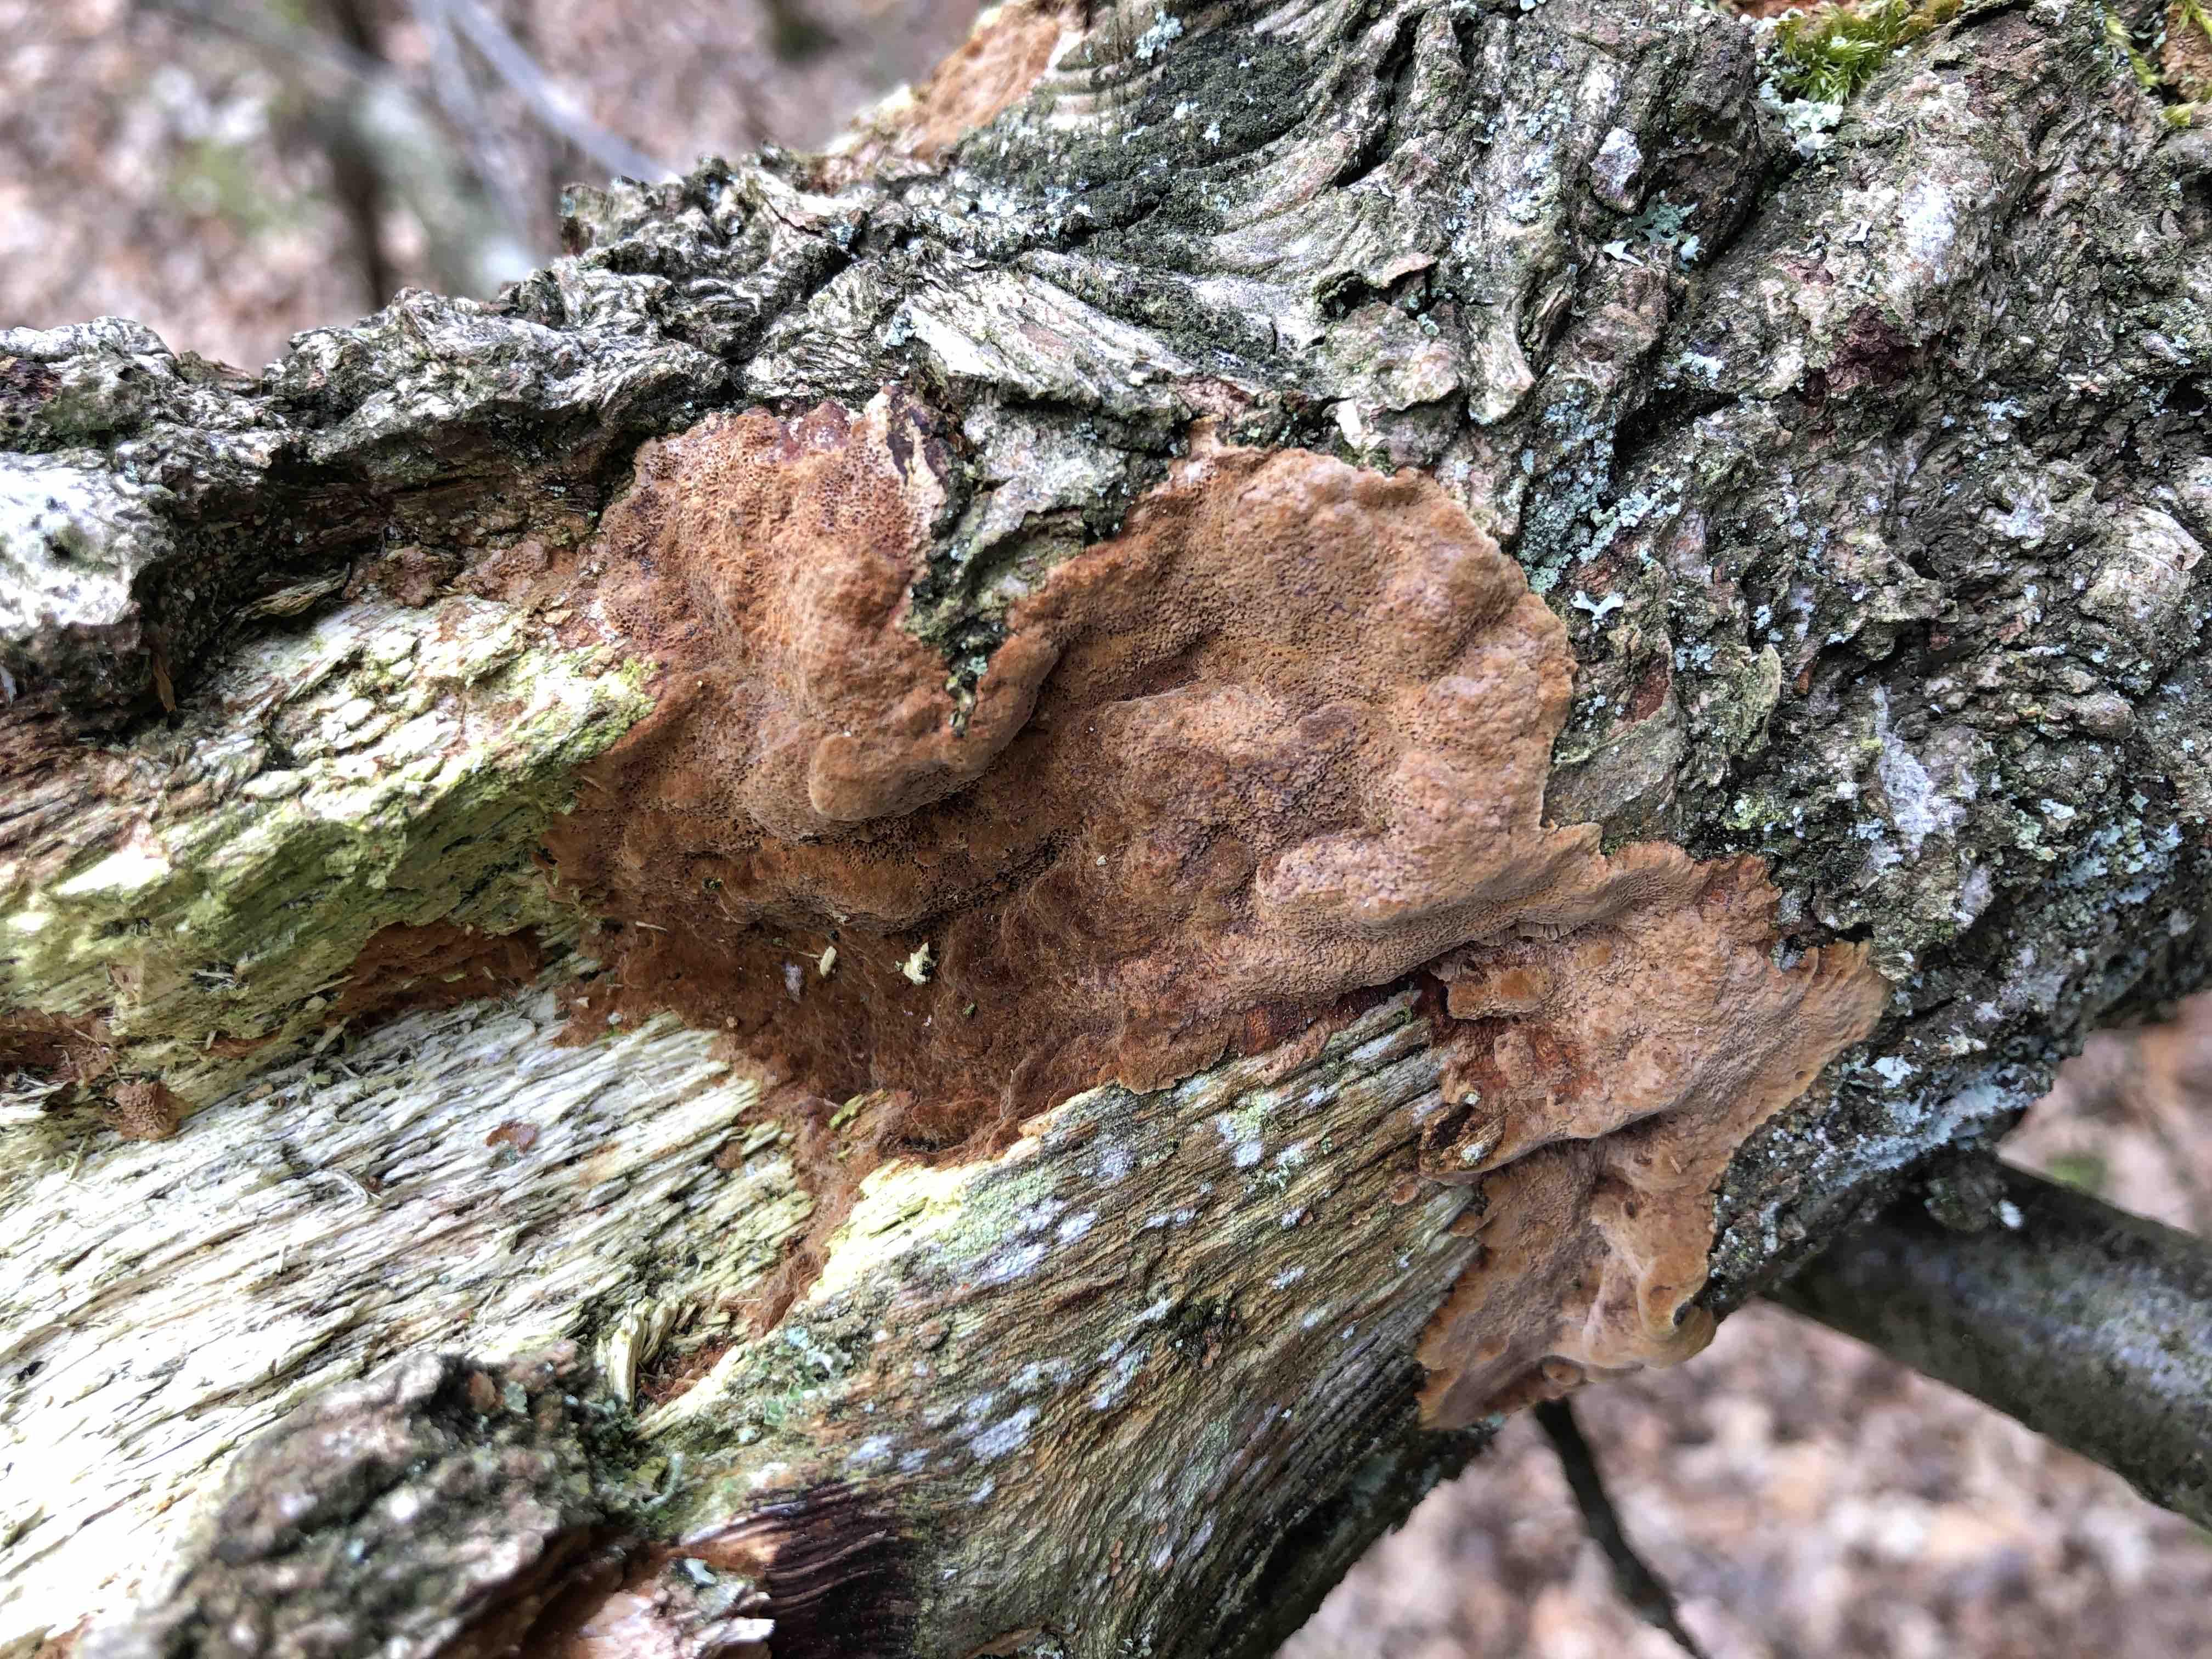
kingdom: Fungi
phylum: Basidiomycota
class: Agaricomycetes
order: Hymenochaetales
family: Hymenochaetaceae
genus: Fuscoporia
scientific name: Fuscoporia ferrea
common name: skorpe-ildporesvamp
